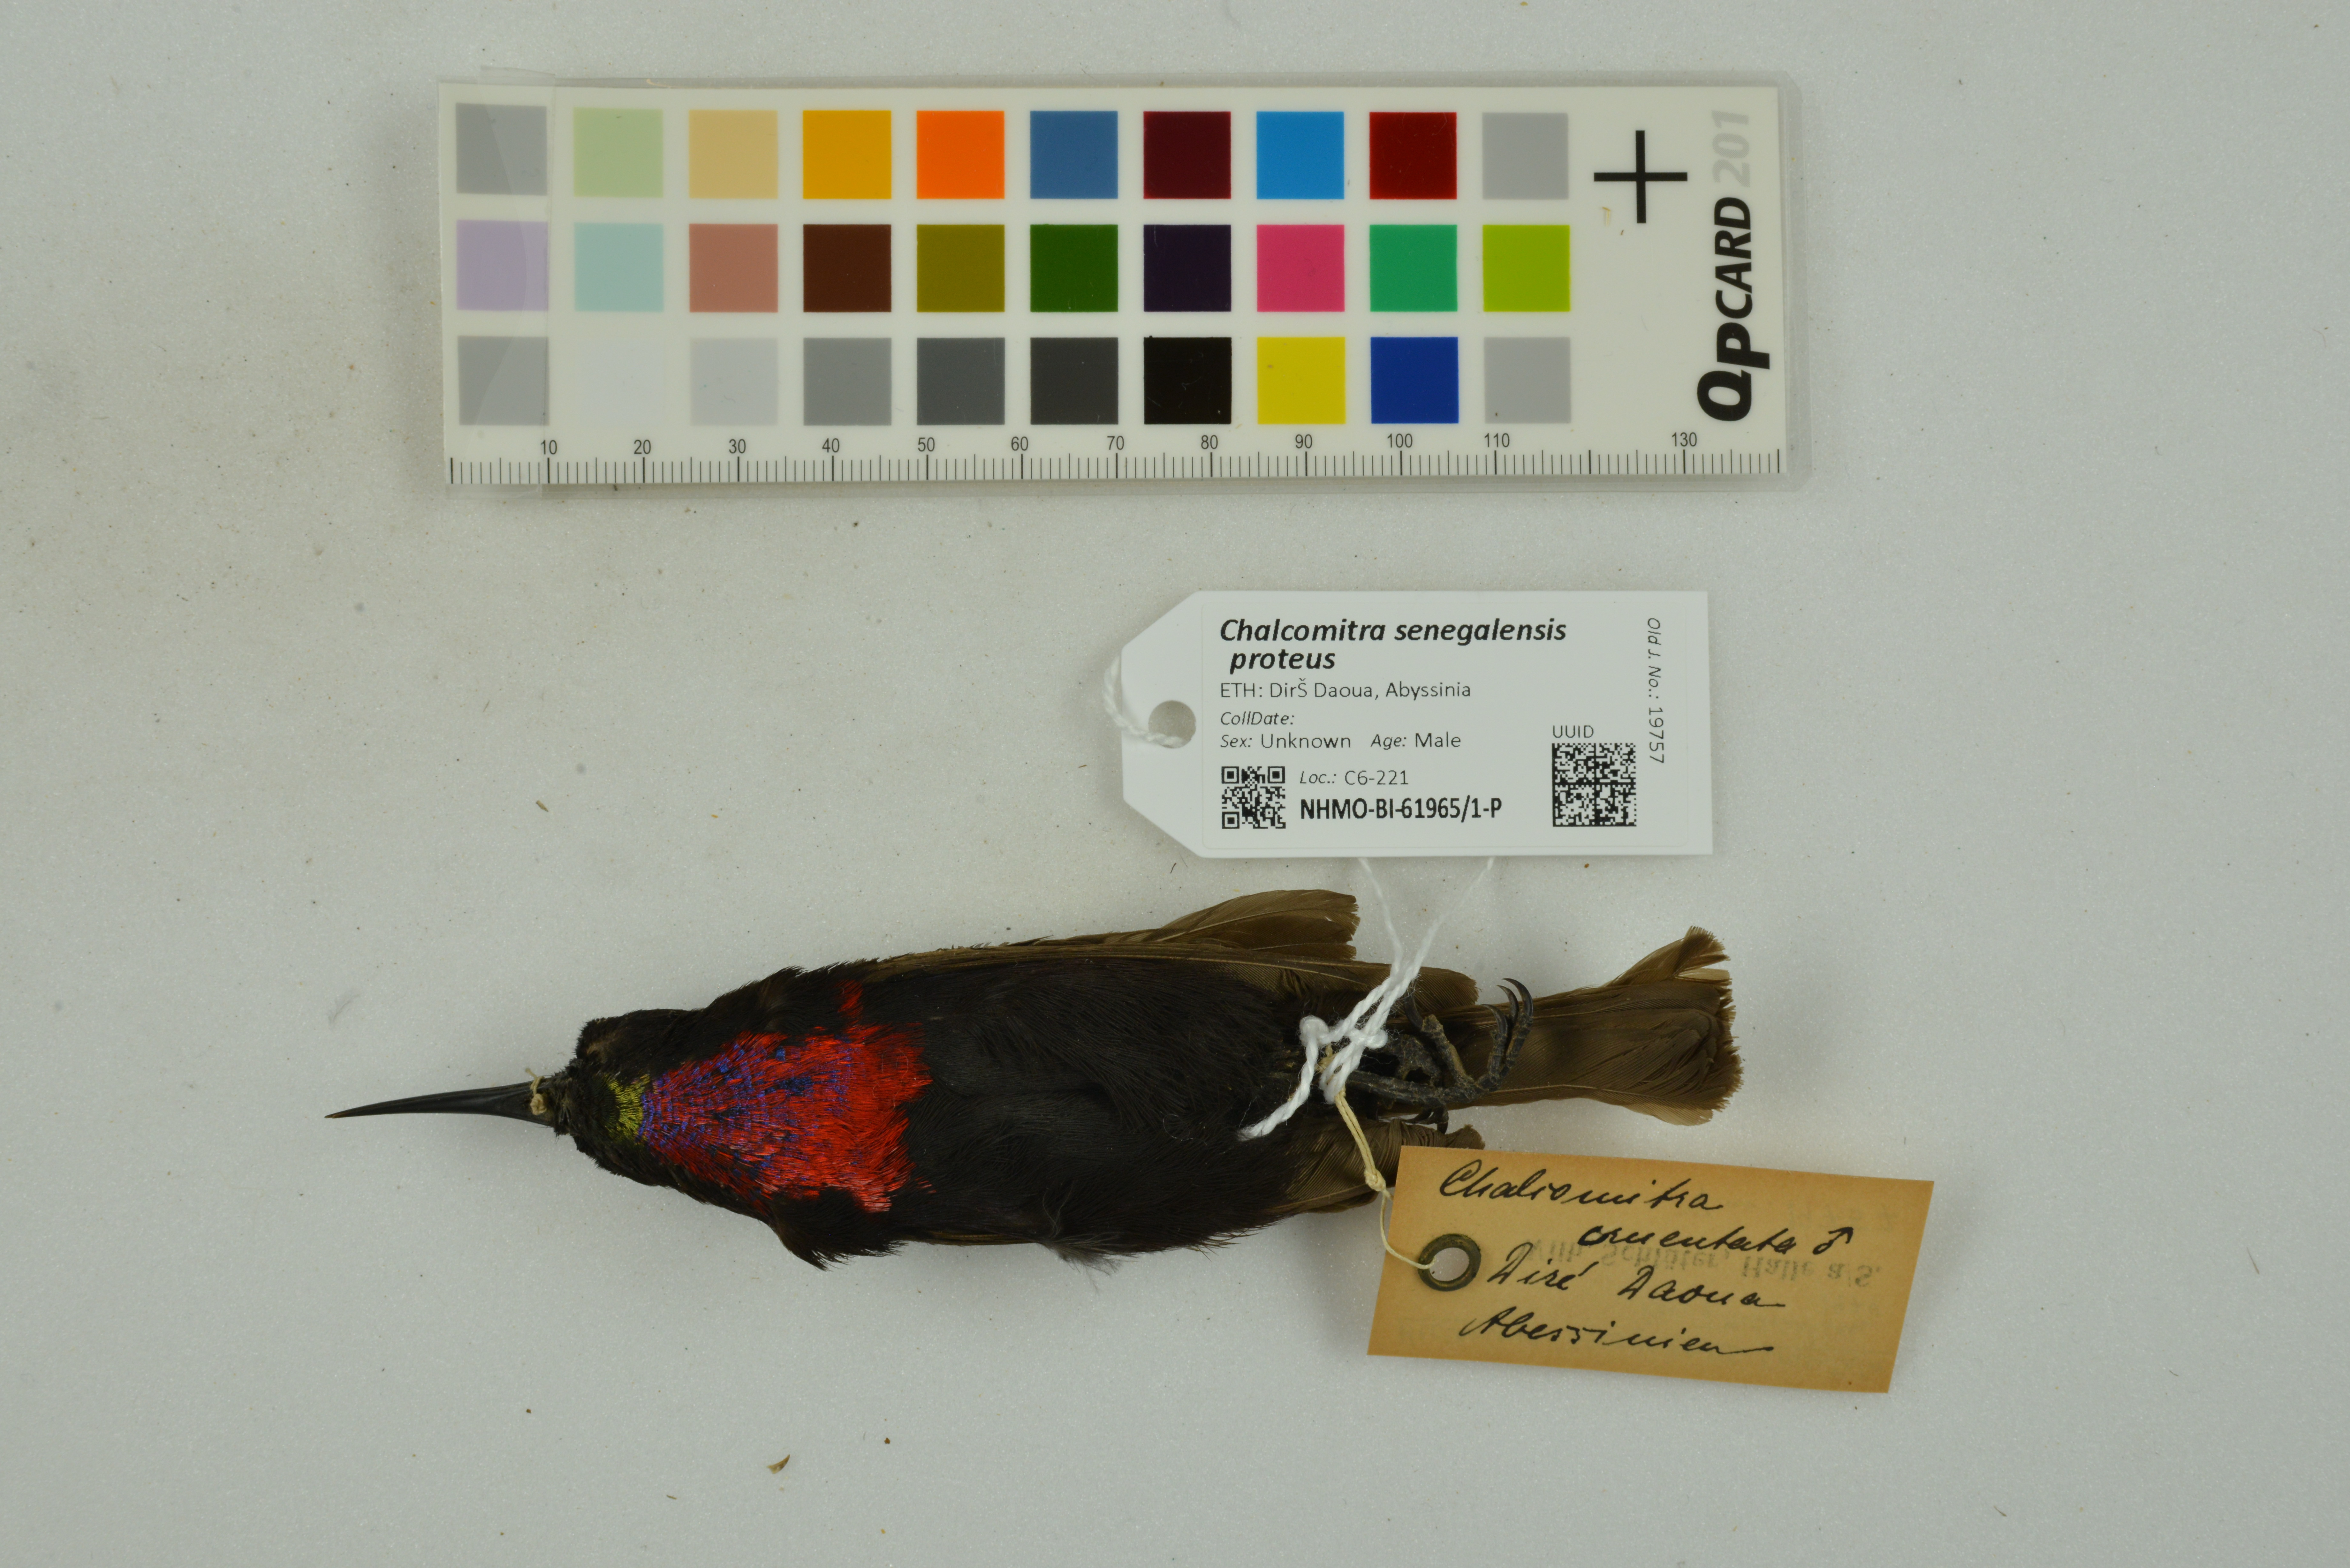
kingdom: Animalia
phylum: Chordata
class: Aves
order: Passeriformes
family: Nectariniidae
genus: Chalcomitra
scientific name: Chalcomitra senegalensis
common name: Scarlet-chested sunbird
